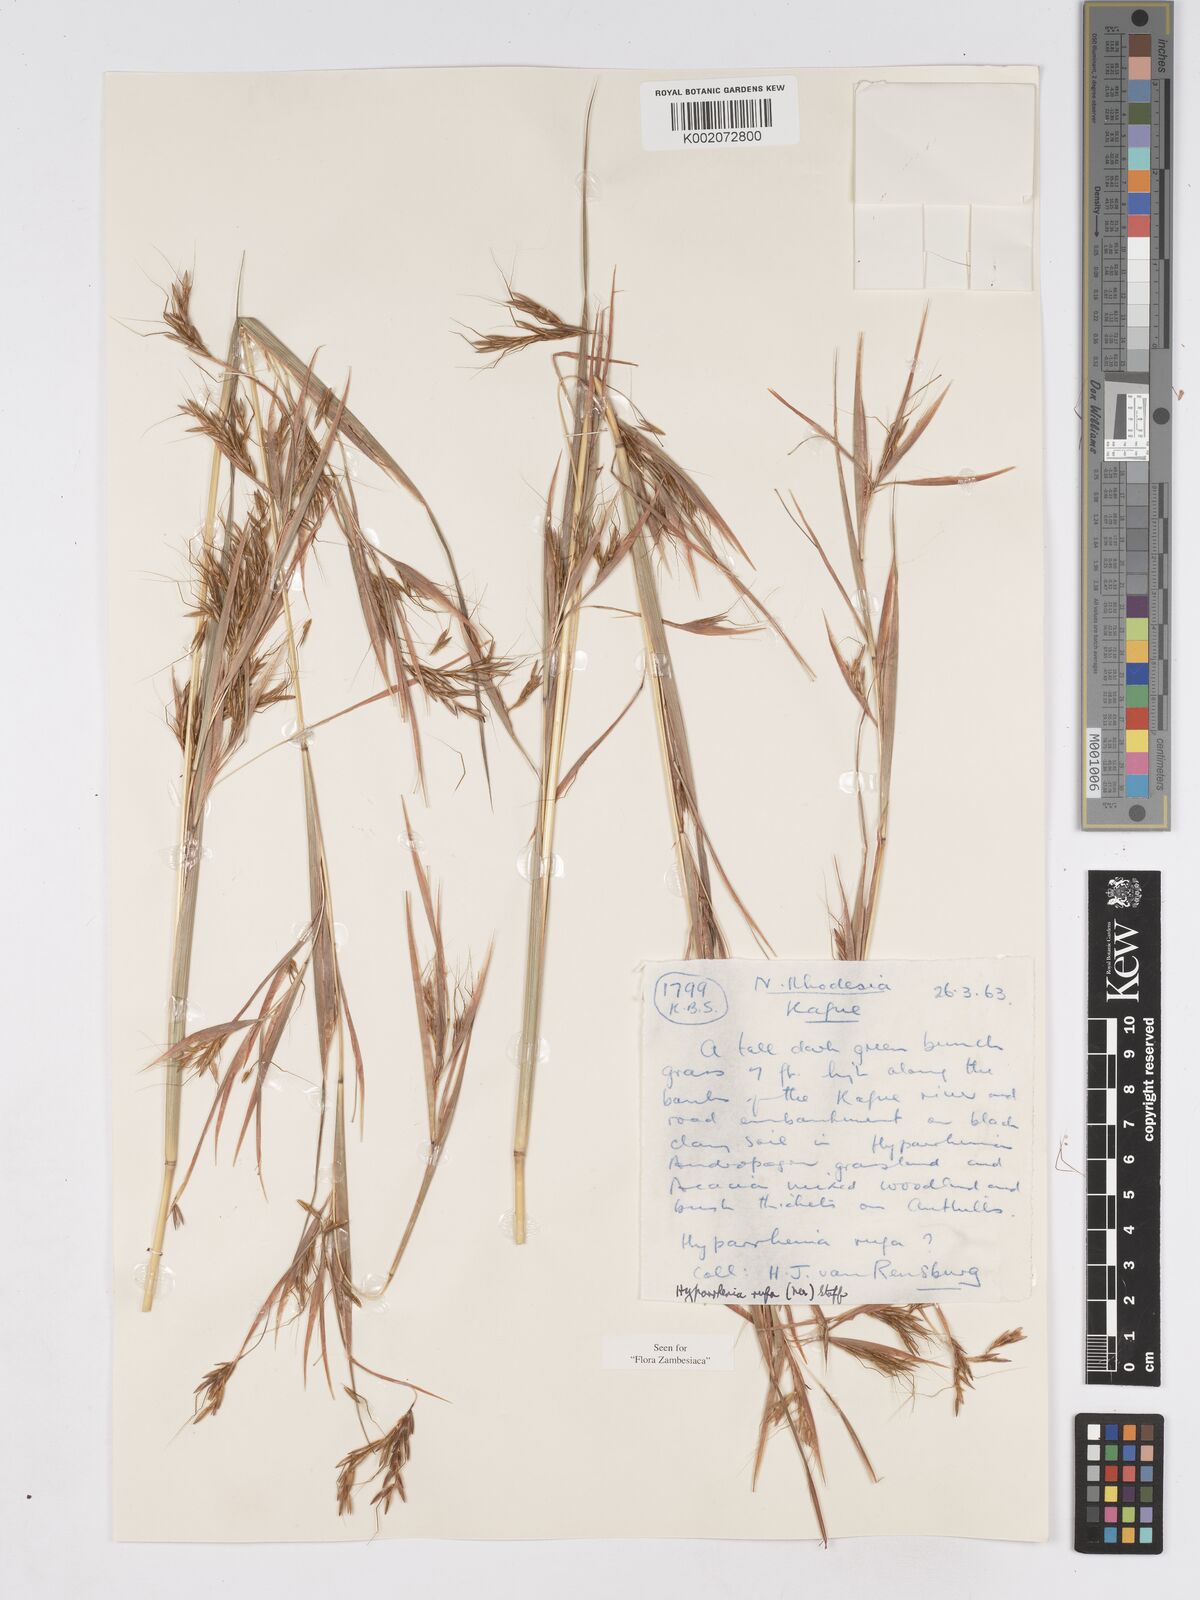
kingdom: Plantae
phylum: Tracheophyta
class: Liliopsida
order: Poales
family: Poaceae
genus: Hyparrhenia
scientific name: Hyparrhenia rufa
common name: Jaraguagrass
